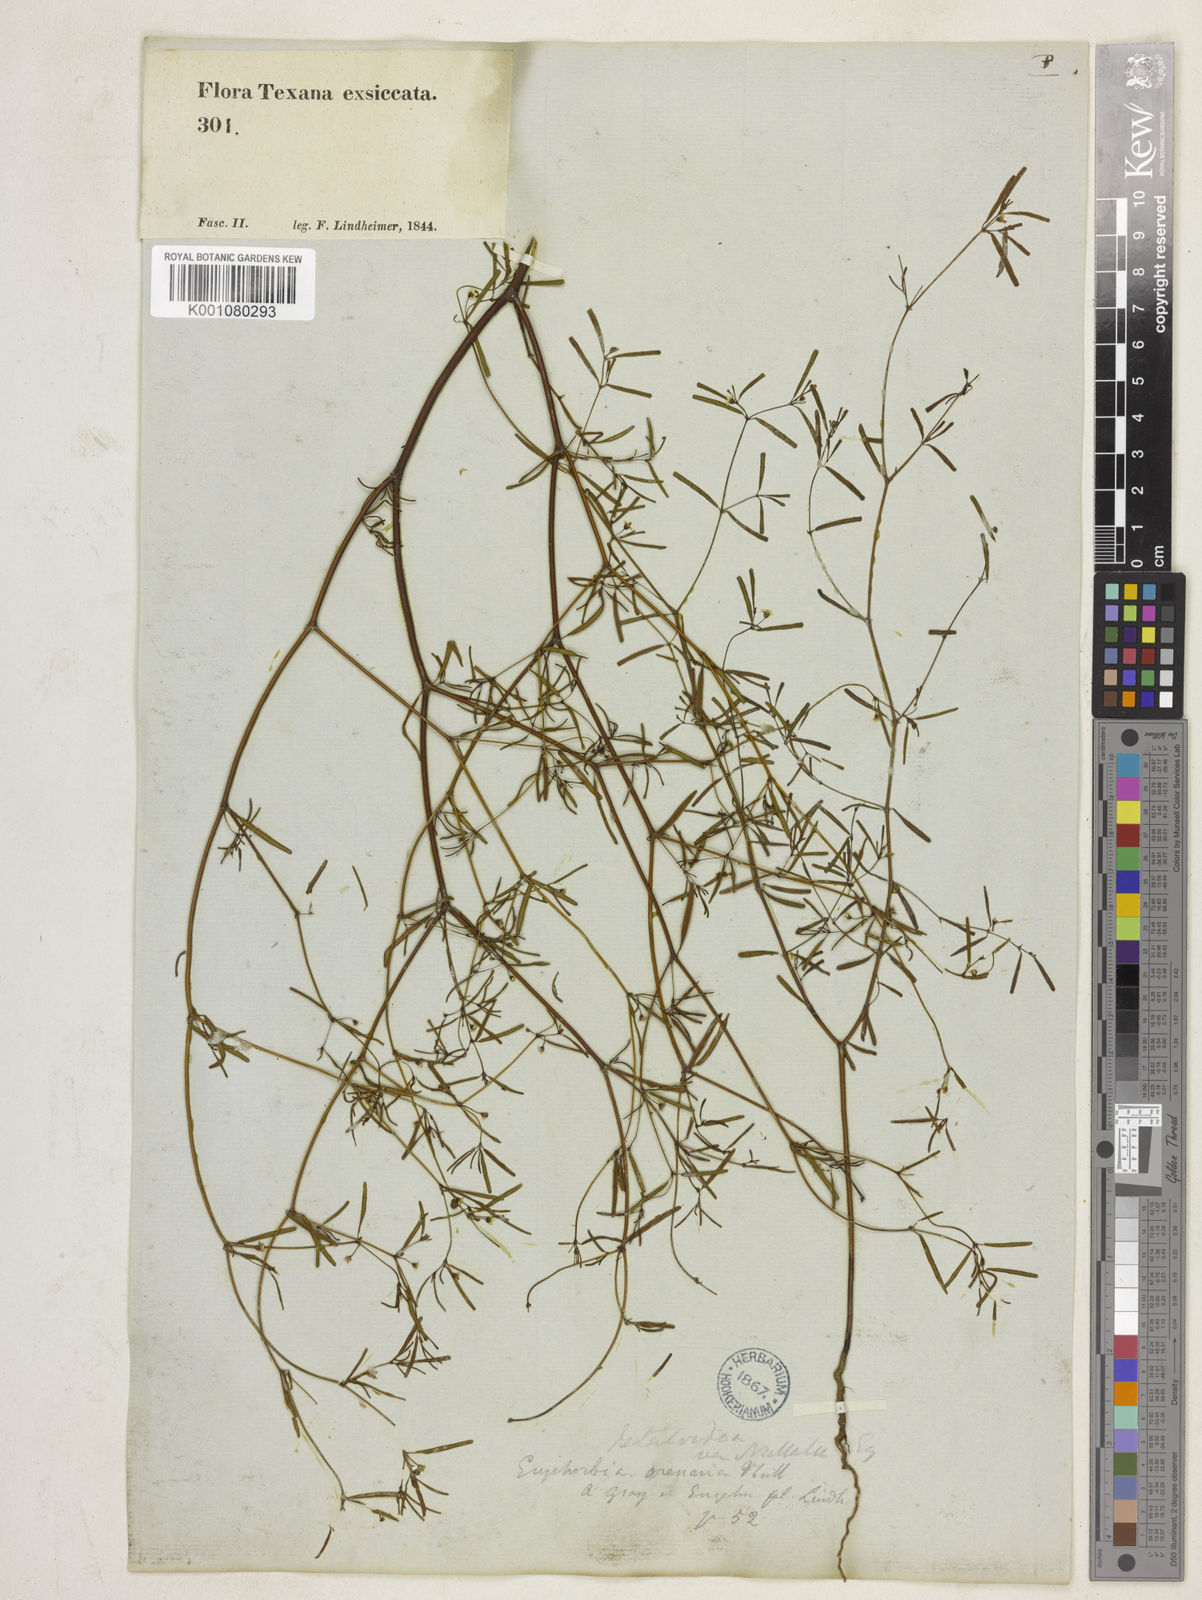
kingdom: Plantae
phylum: Tracheophyta
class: Magnoliopsida
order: Malpighiales
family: Euphorbiaceae
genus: Euphorbia
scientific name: Euphorbia missurica
